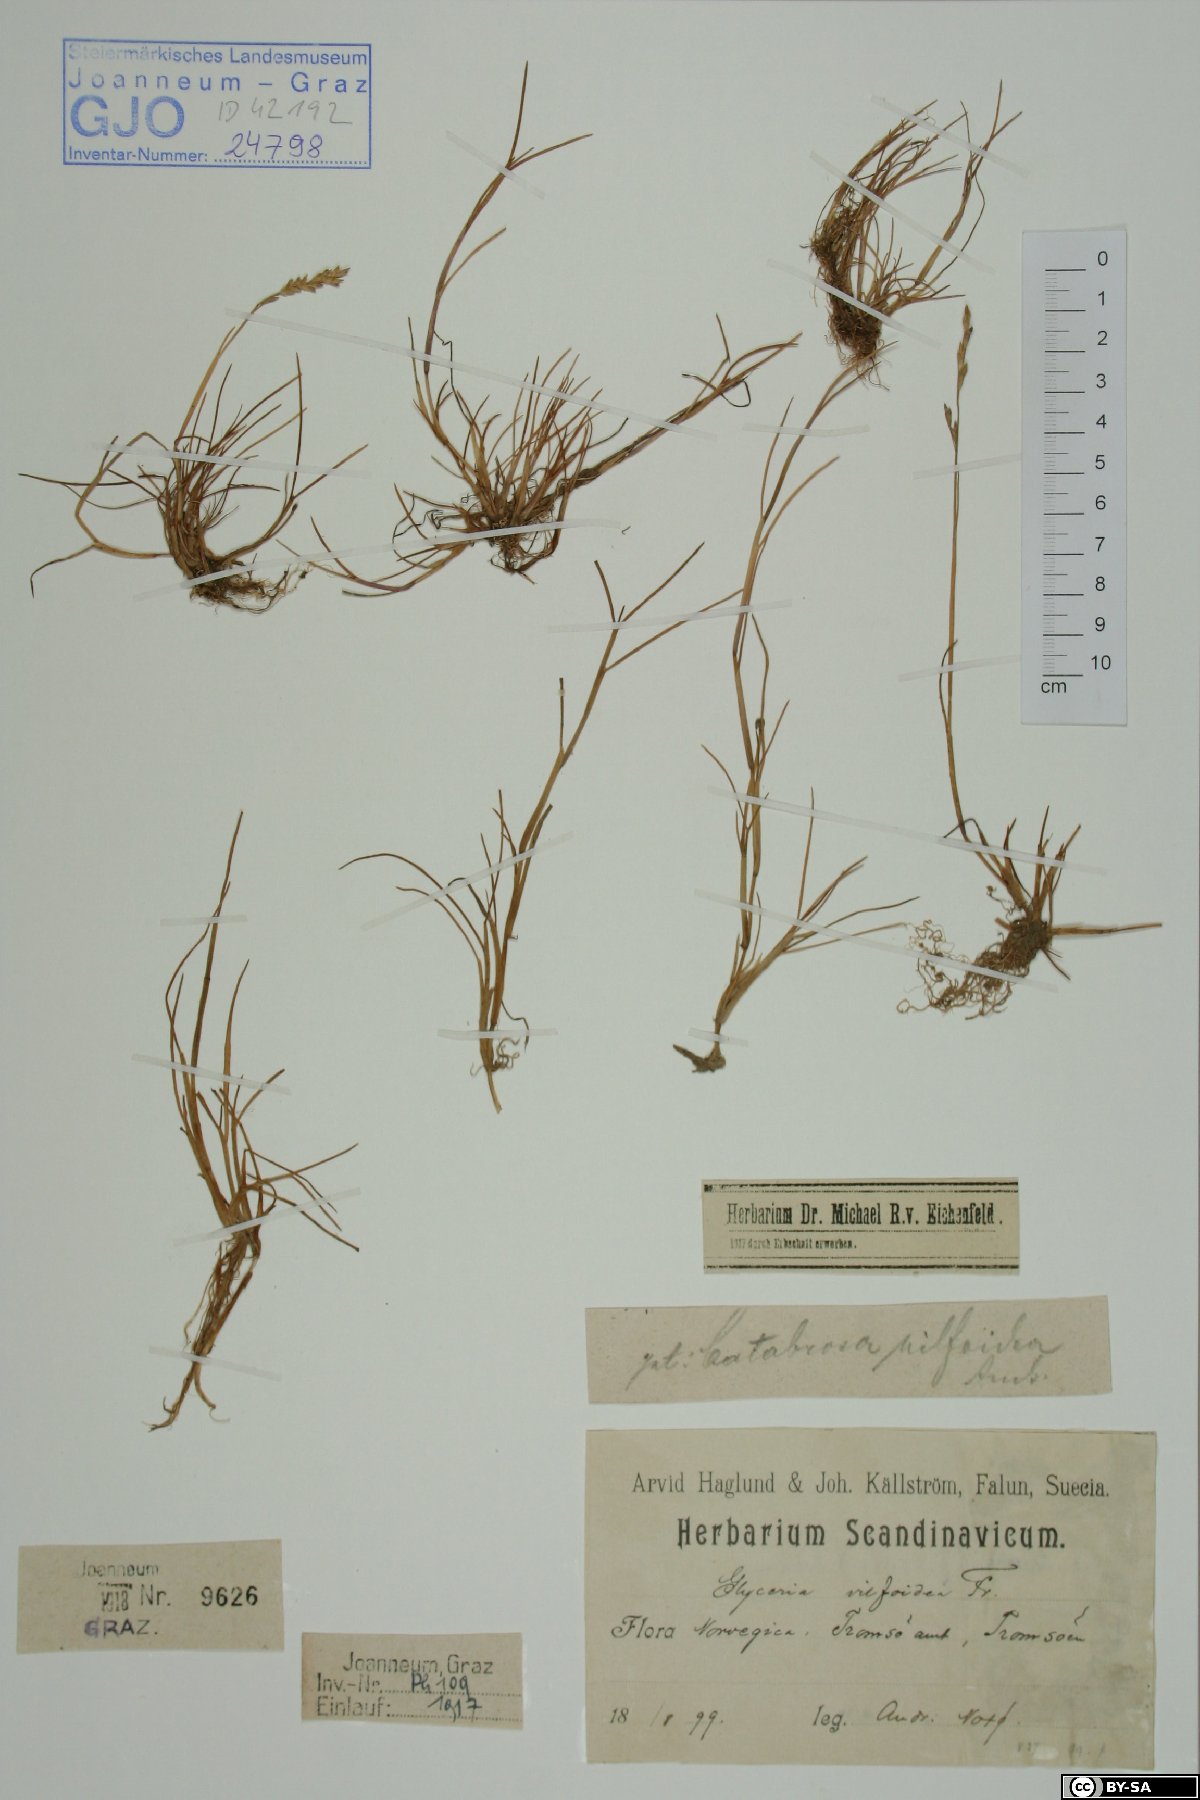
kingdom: Plantae
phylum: Tracheophyta
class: Liliopsida
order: Poales
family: Poaceae
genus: Puccinellia
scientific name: Puccinellia phryganodes
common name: Creeping alkaligrass
